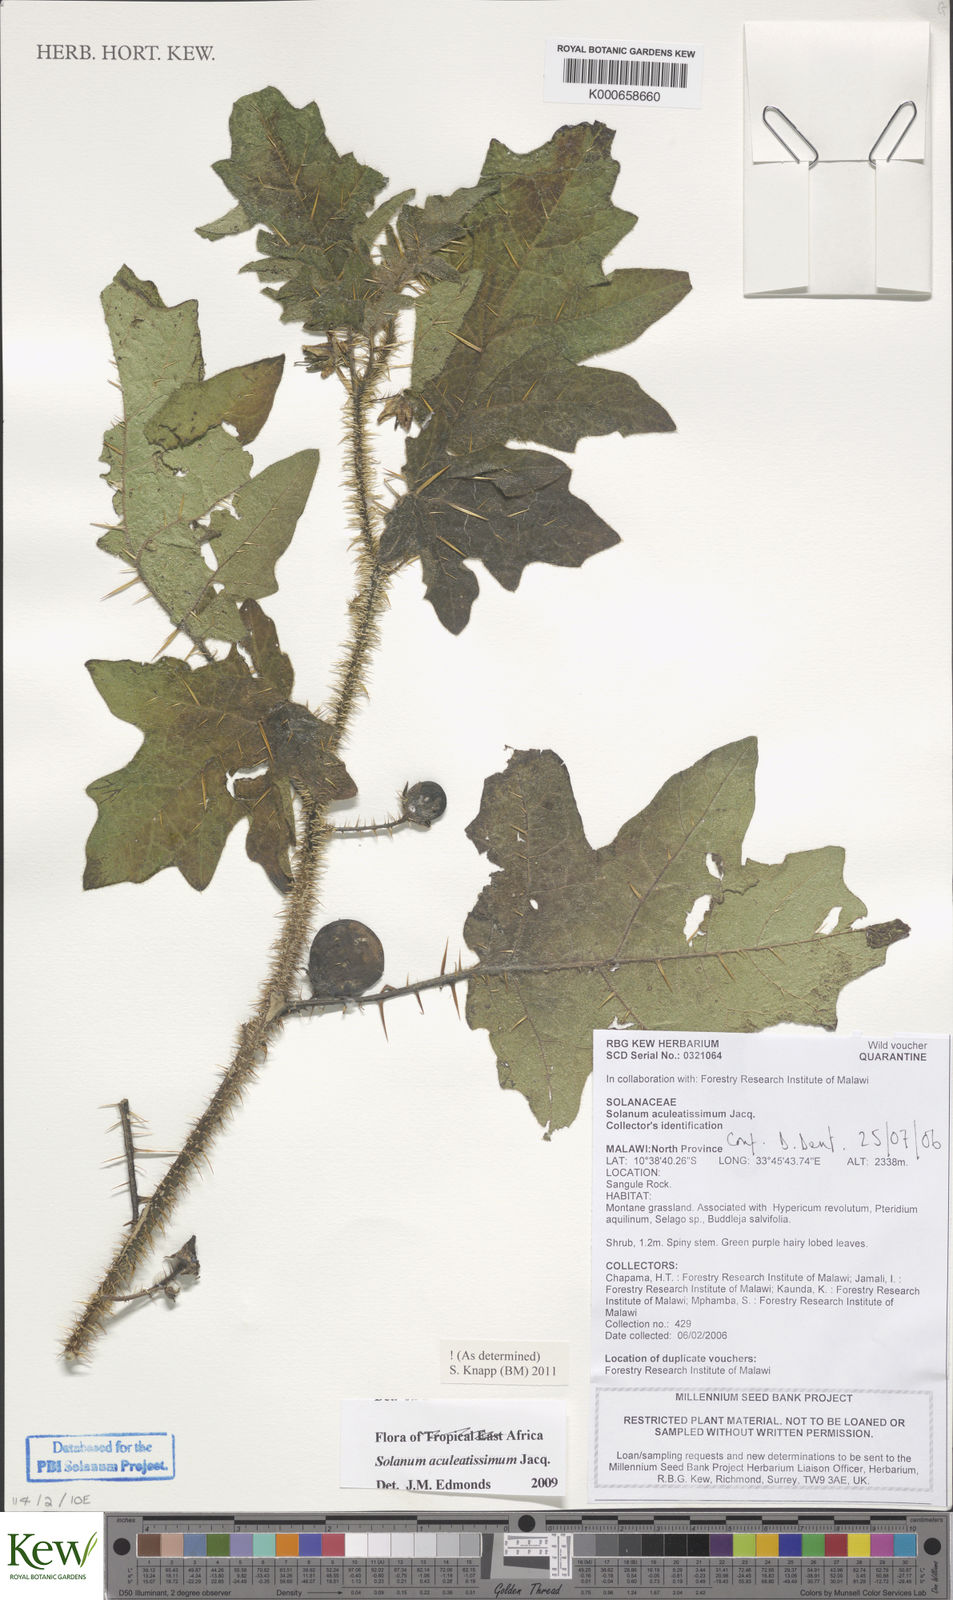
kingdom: Plantae
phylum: Tracheophyta
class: Magnoliopsida
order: Solanales
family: Solanaceae
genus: Solanum
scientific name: Solanum aculeatissimum
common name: Dutch eggplant
